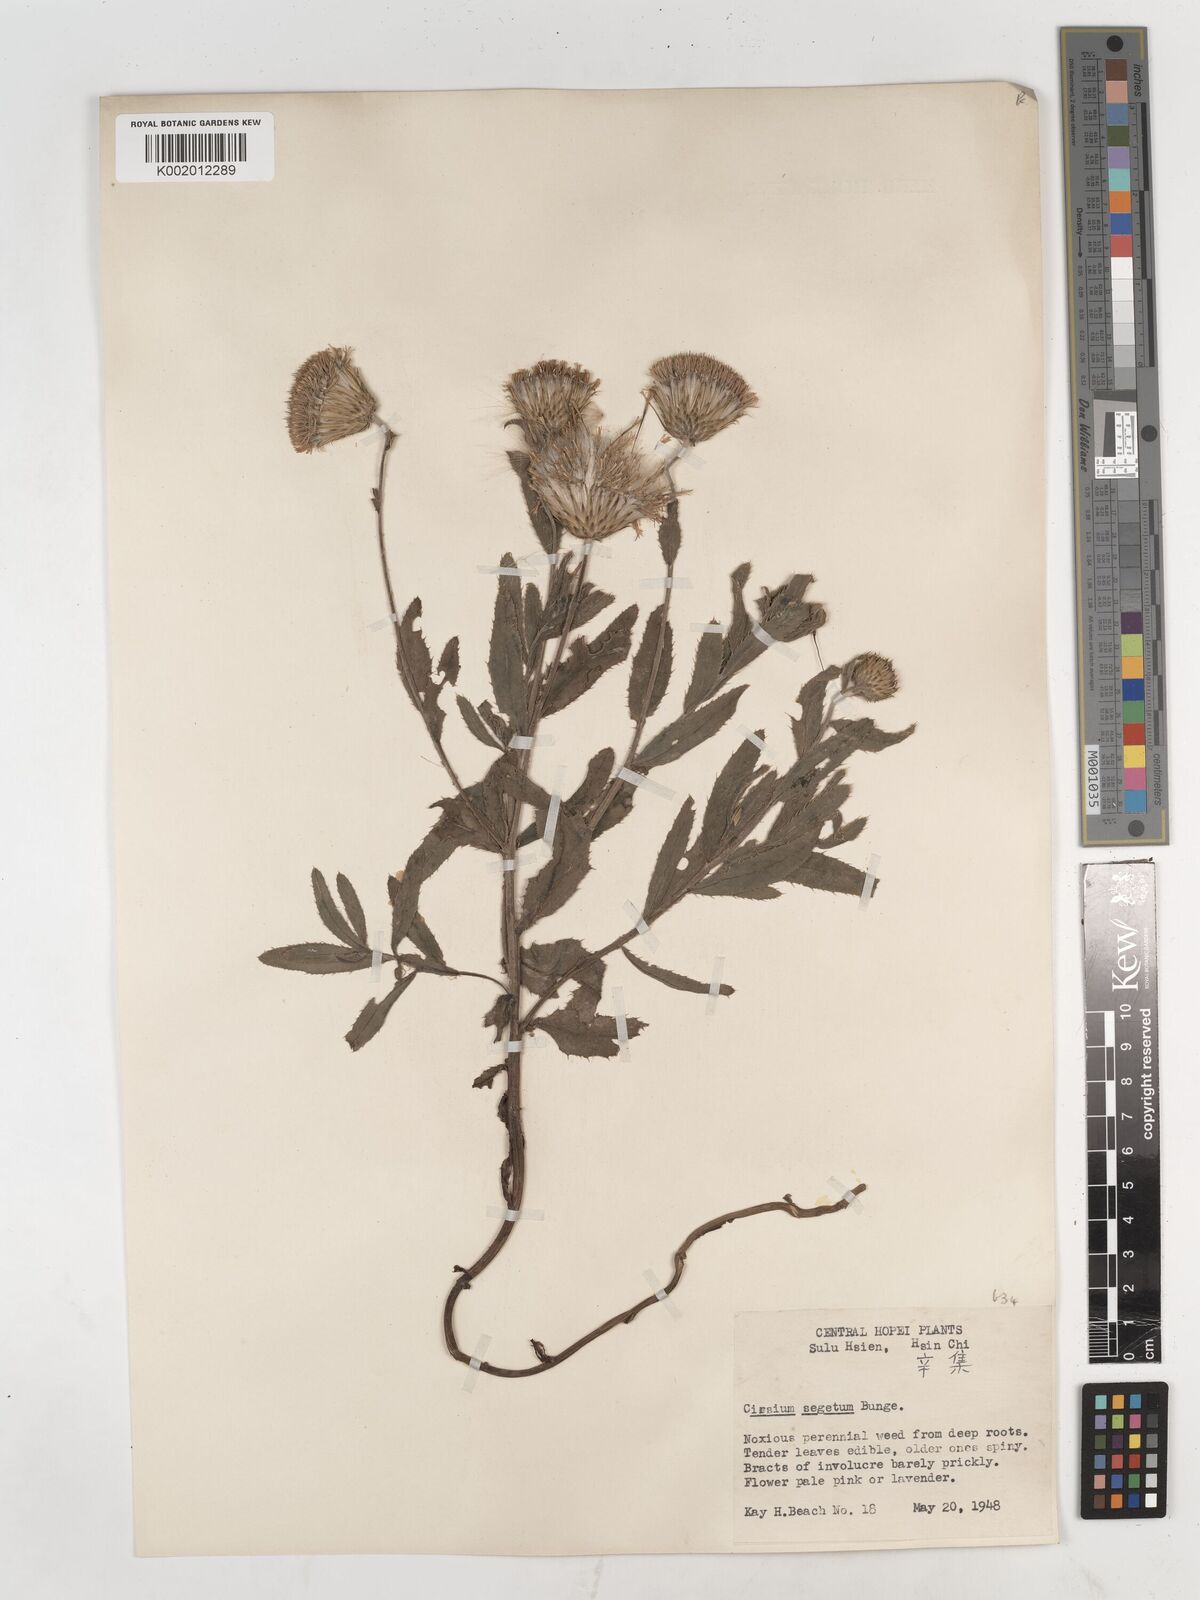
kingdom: Plantae
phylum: Tracheophyta
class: Magnoliopsida
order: Asterales
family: Asteraceae
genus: Cirsium
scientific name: Cirsium arvense
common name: Creeping thistle
